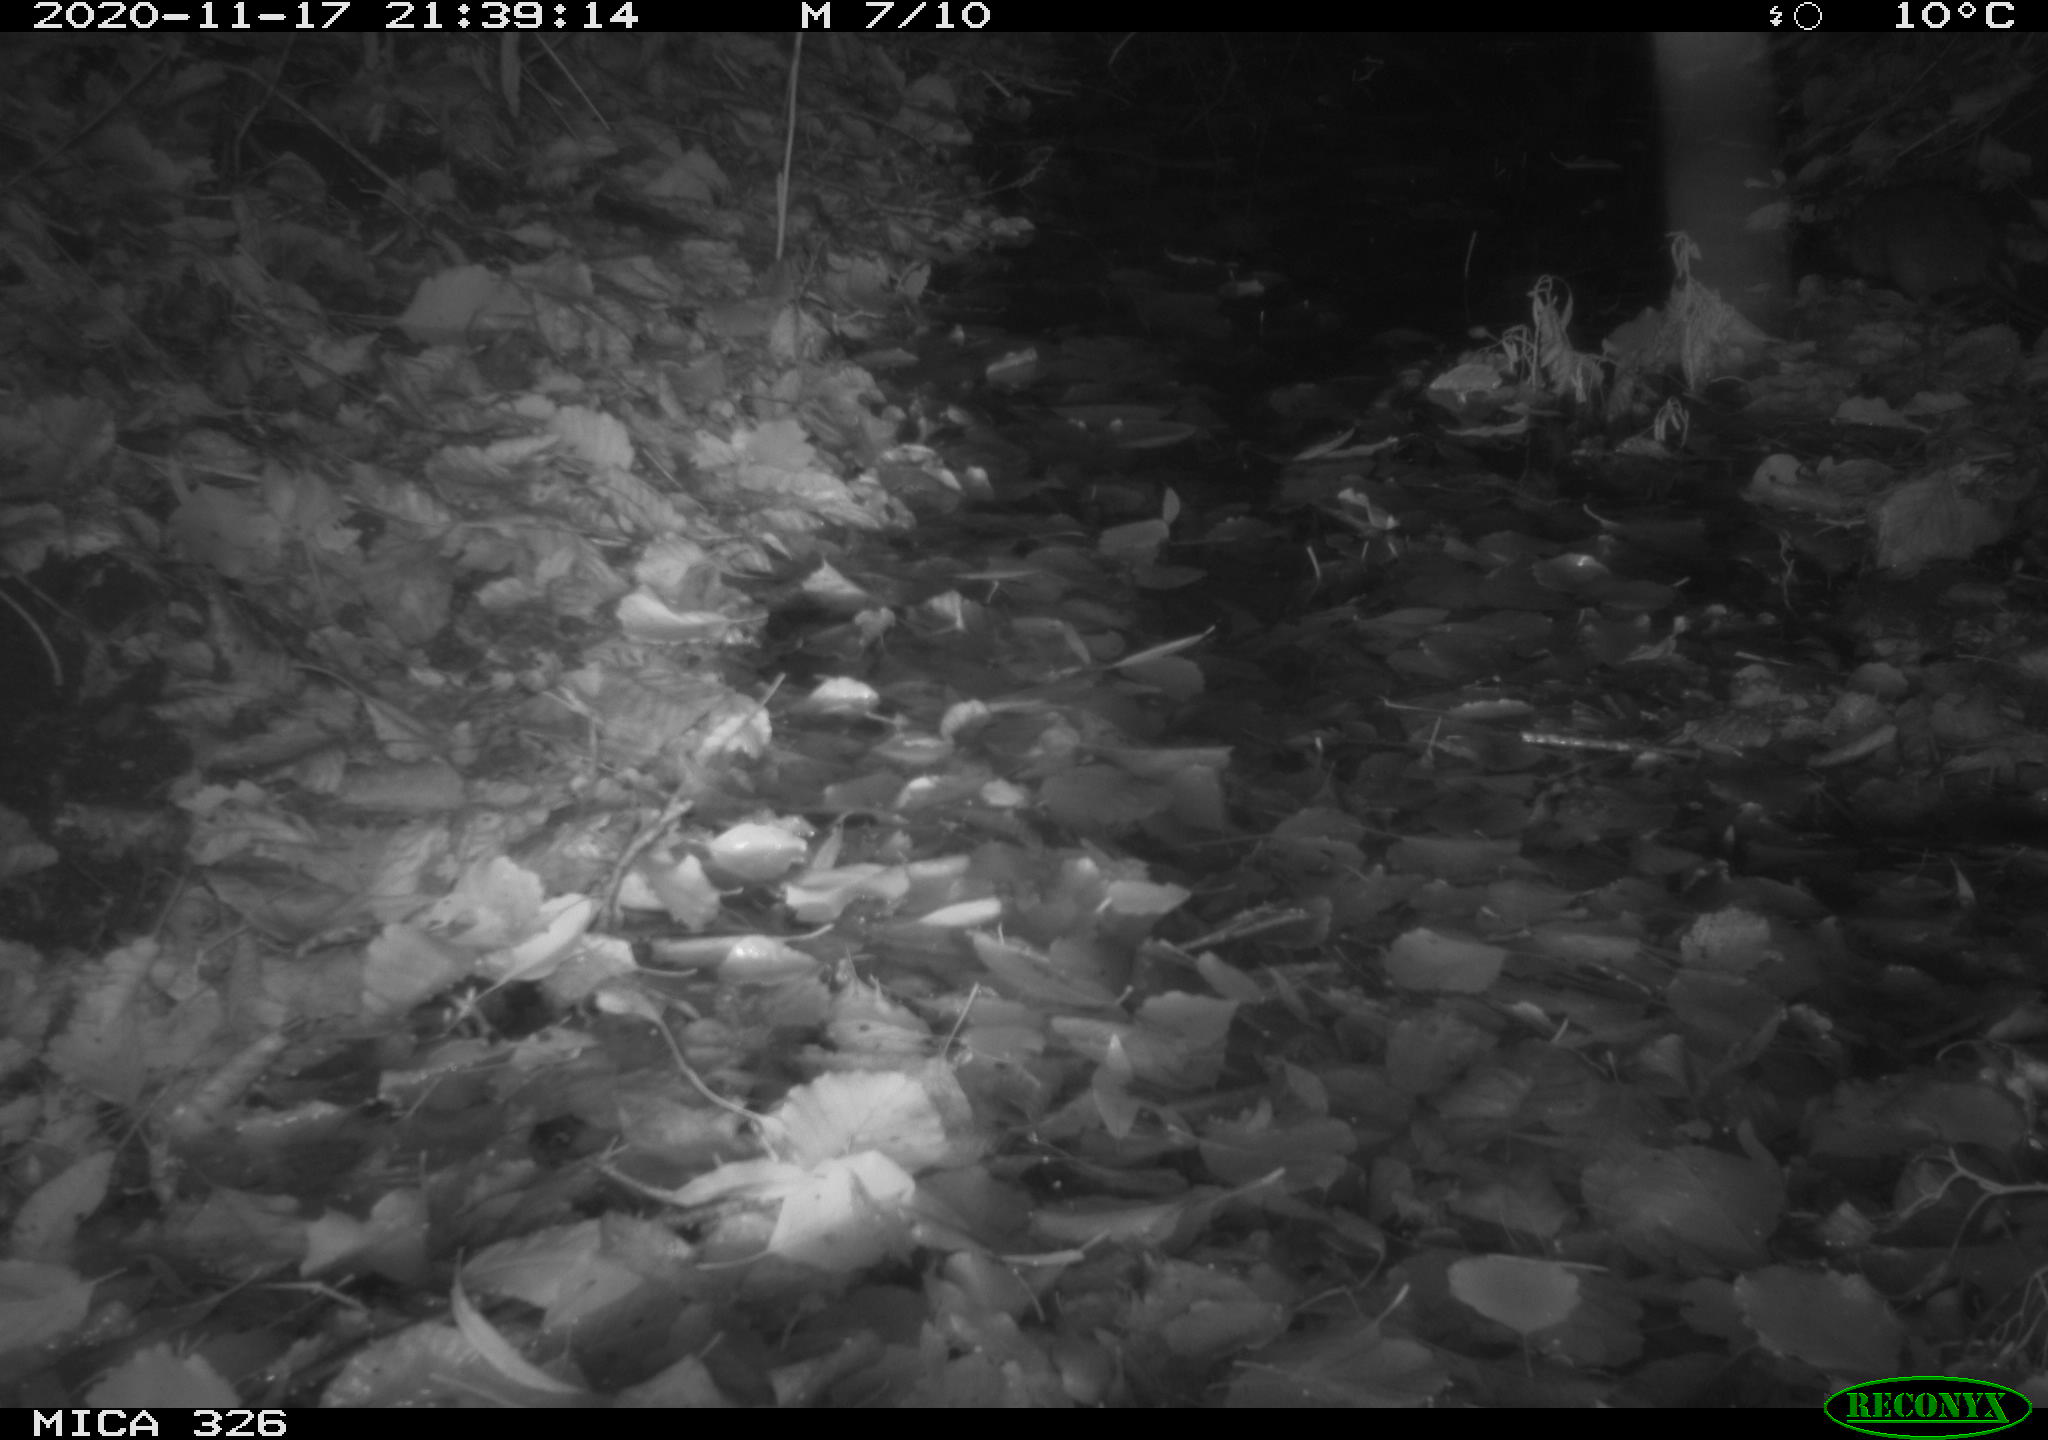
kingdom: Animalia
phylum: Chordata
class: Mammalia
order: Rodentia
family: Muridae
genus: Rattus
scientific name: Rattus norvegicus
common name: Brown rat
